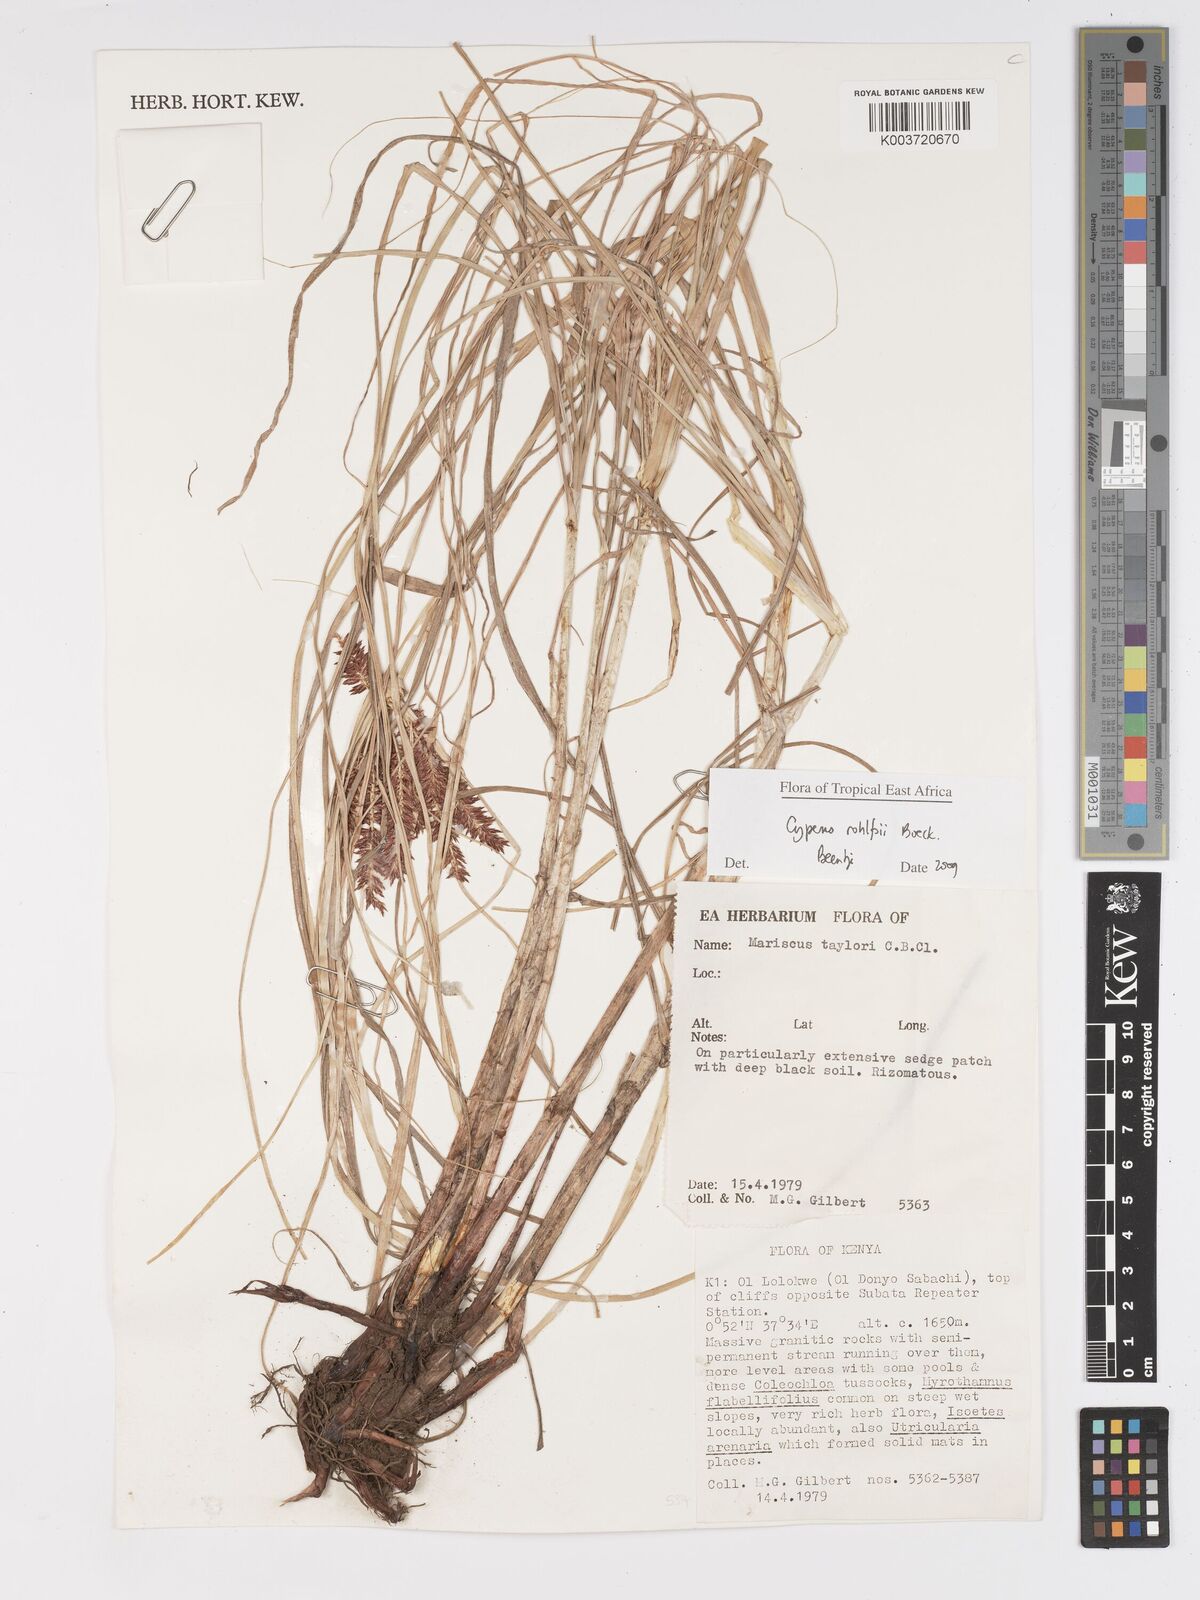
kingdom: Plantae
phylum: Tracheophyta
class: Liliopsida
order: Poales
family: Cyperaceae
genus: Cyperus
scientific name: Cyperus rohlfsii
